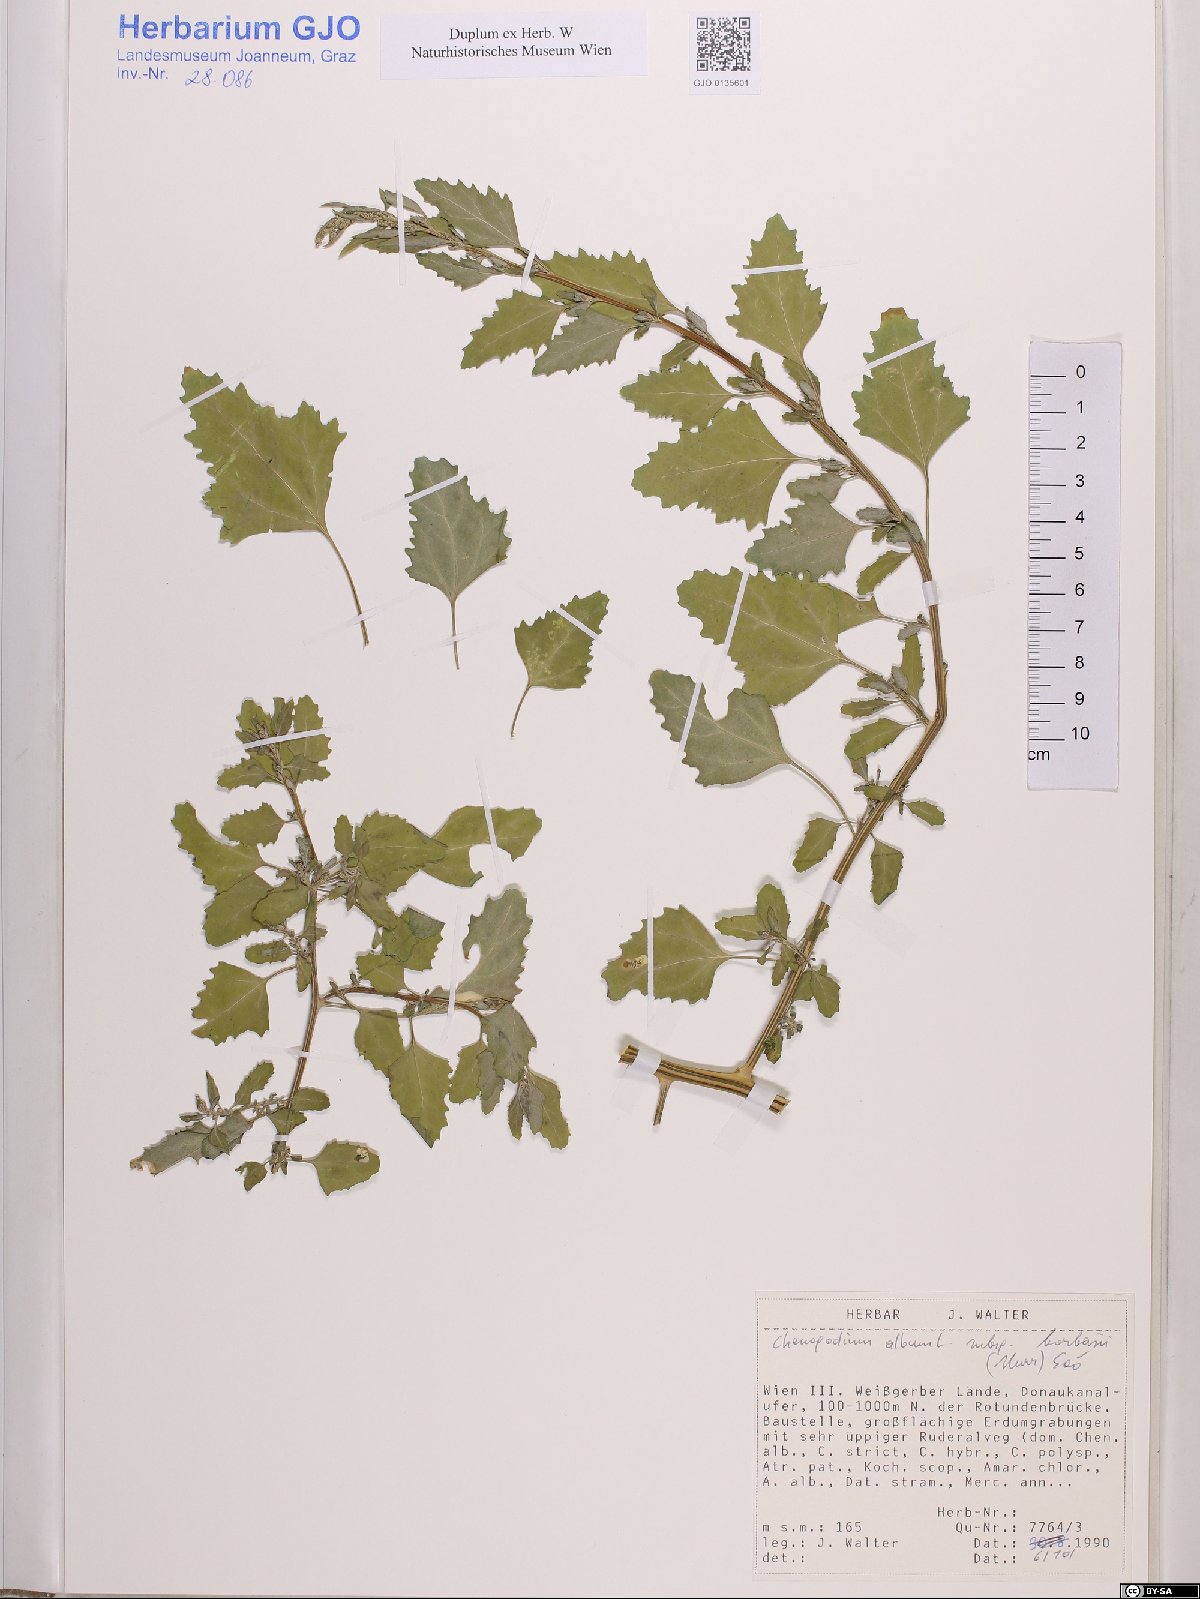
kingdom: Plantae
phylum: Tracheophyta
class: Magnoliopsida
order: Caryophyllales
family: Amaranthaceae
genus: Chenopodium
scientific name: Chenopodium borbasii
